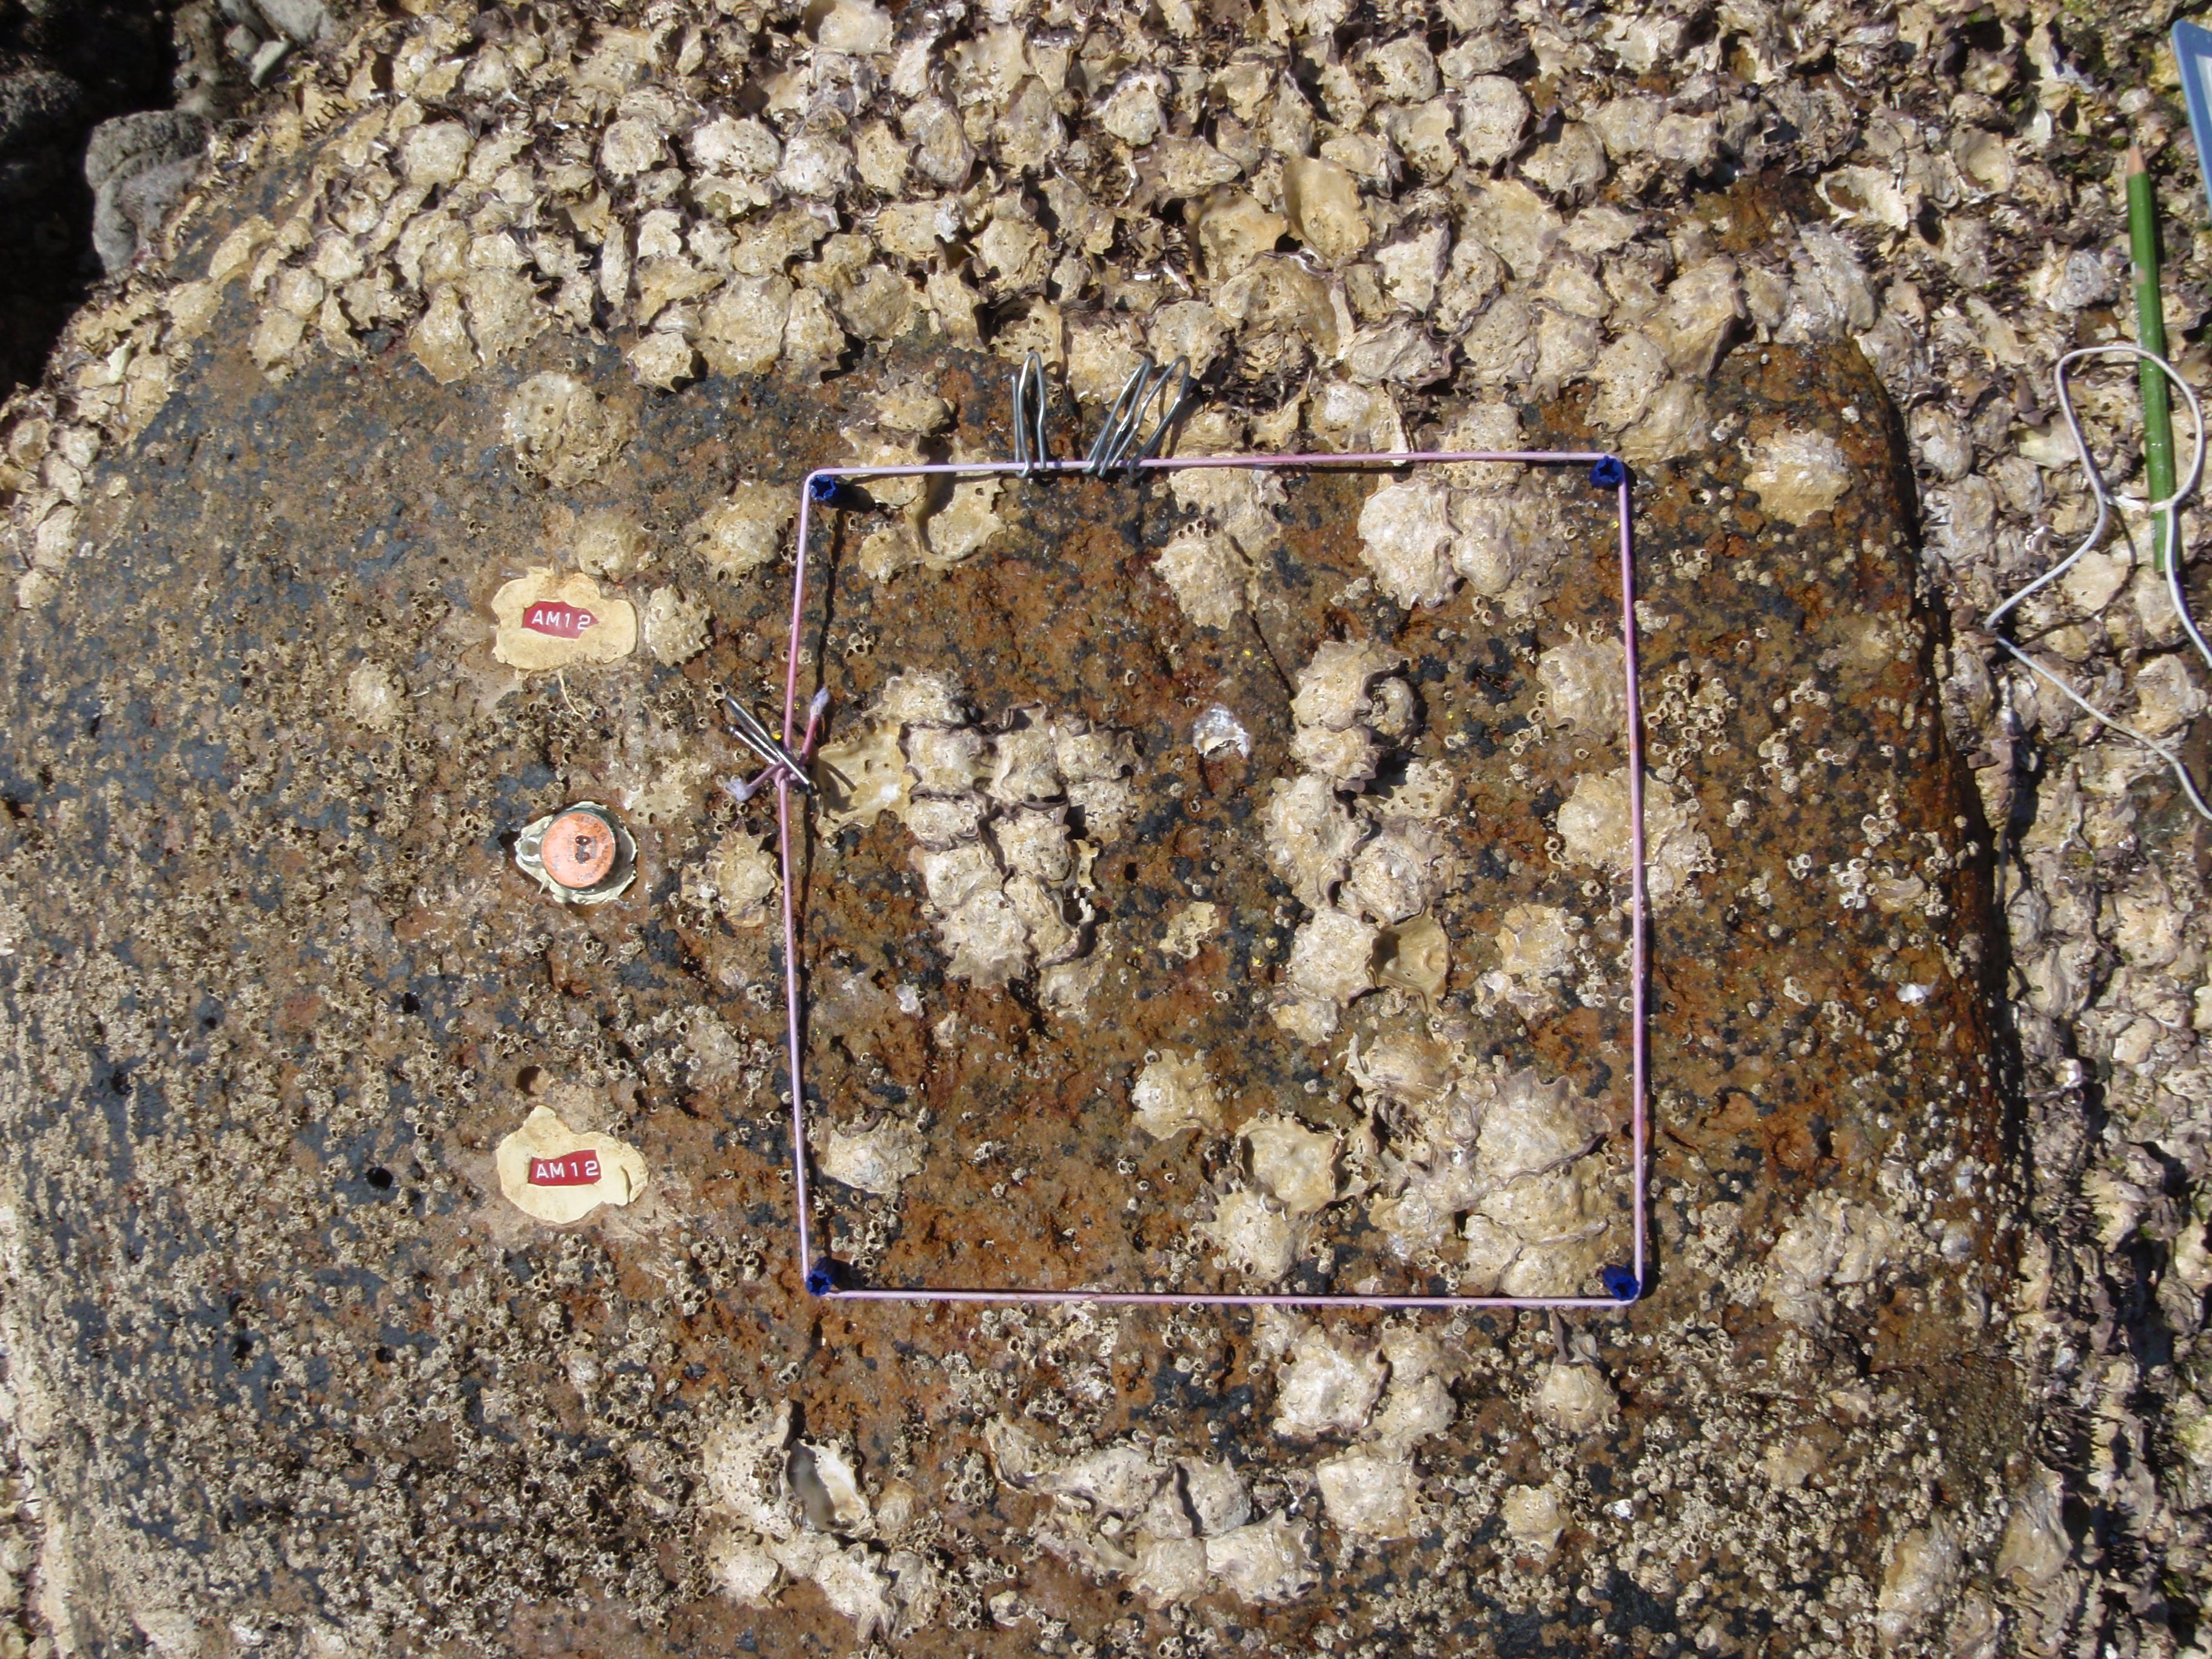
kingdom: Animalia
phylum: Arthropoda
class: Maxillopoda
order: Sessilia
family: Chthamalidae
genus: Chthamalus
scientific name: Chthamalus challengeri
